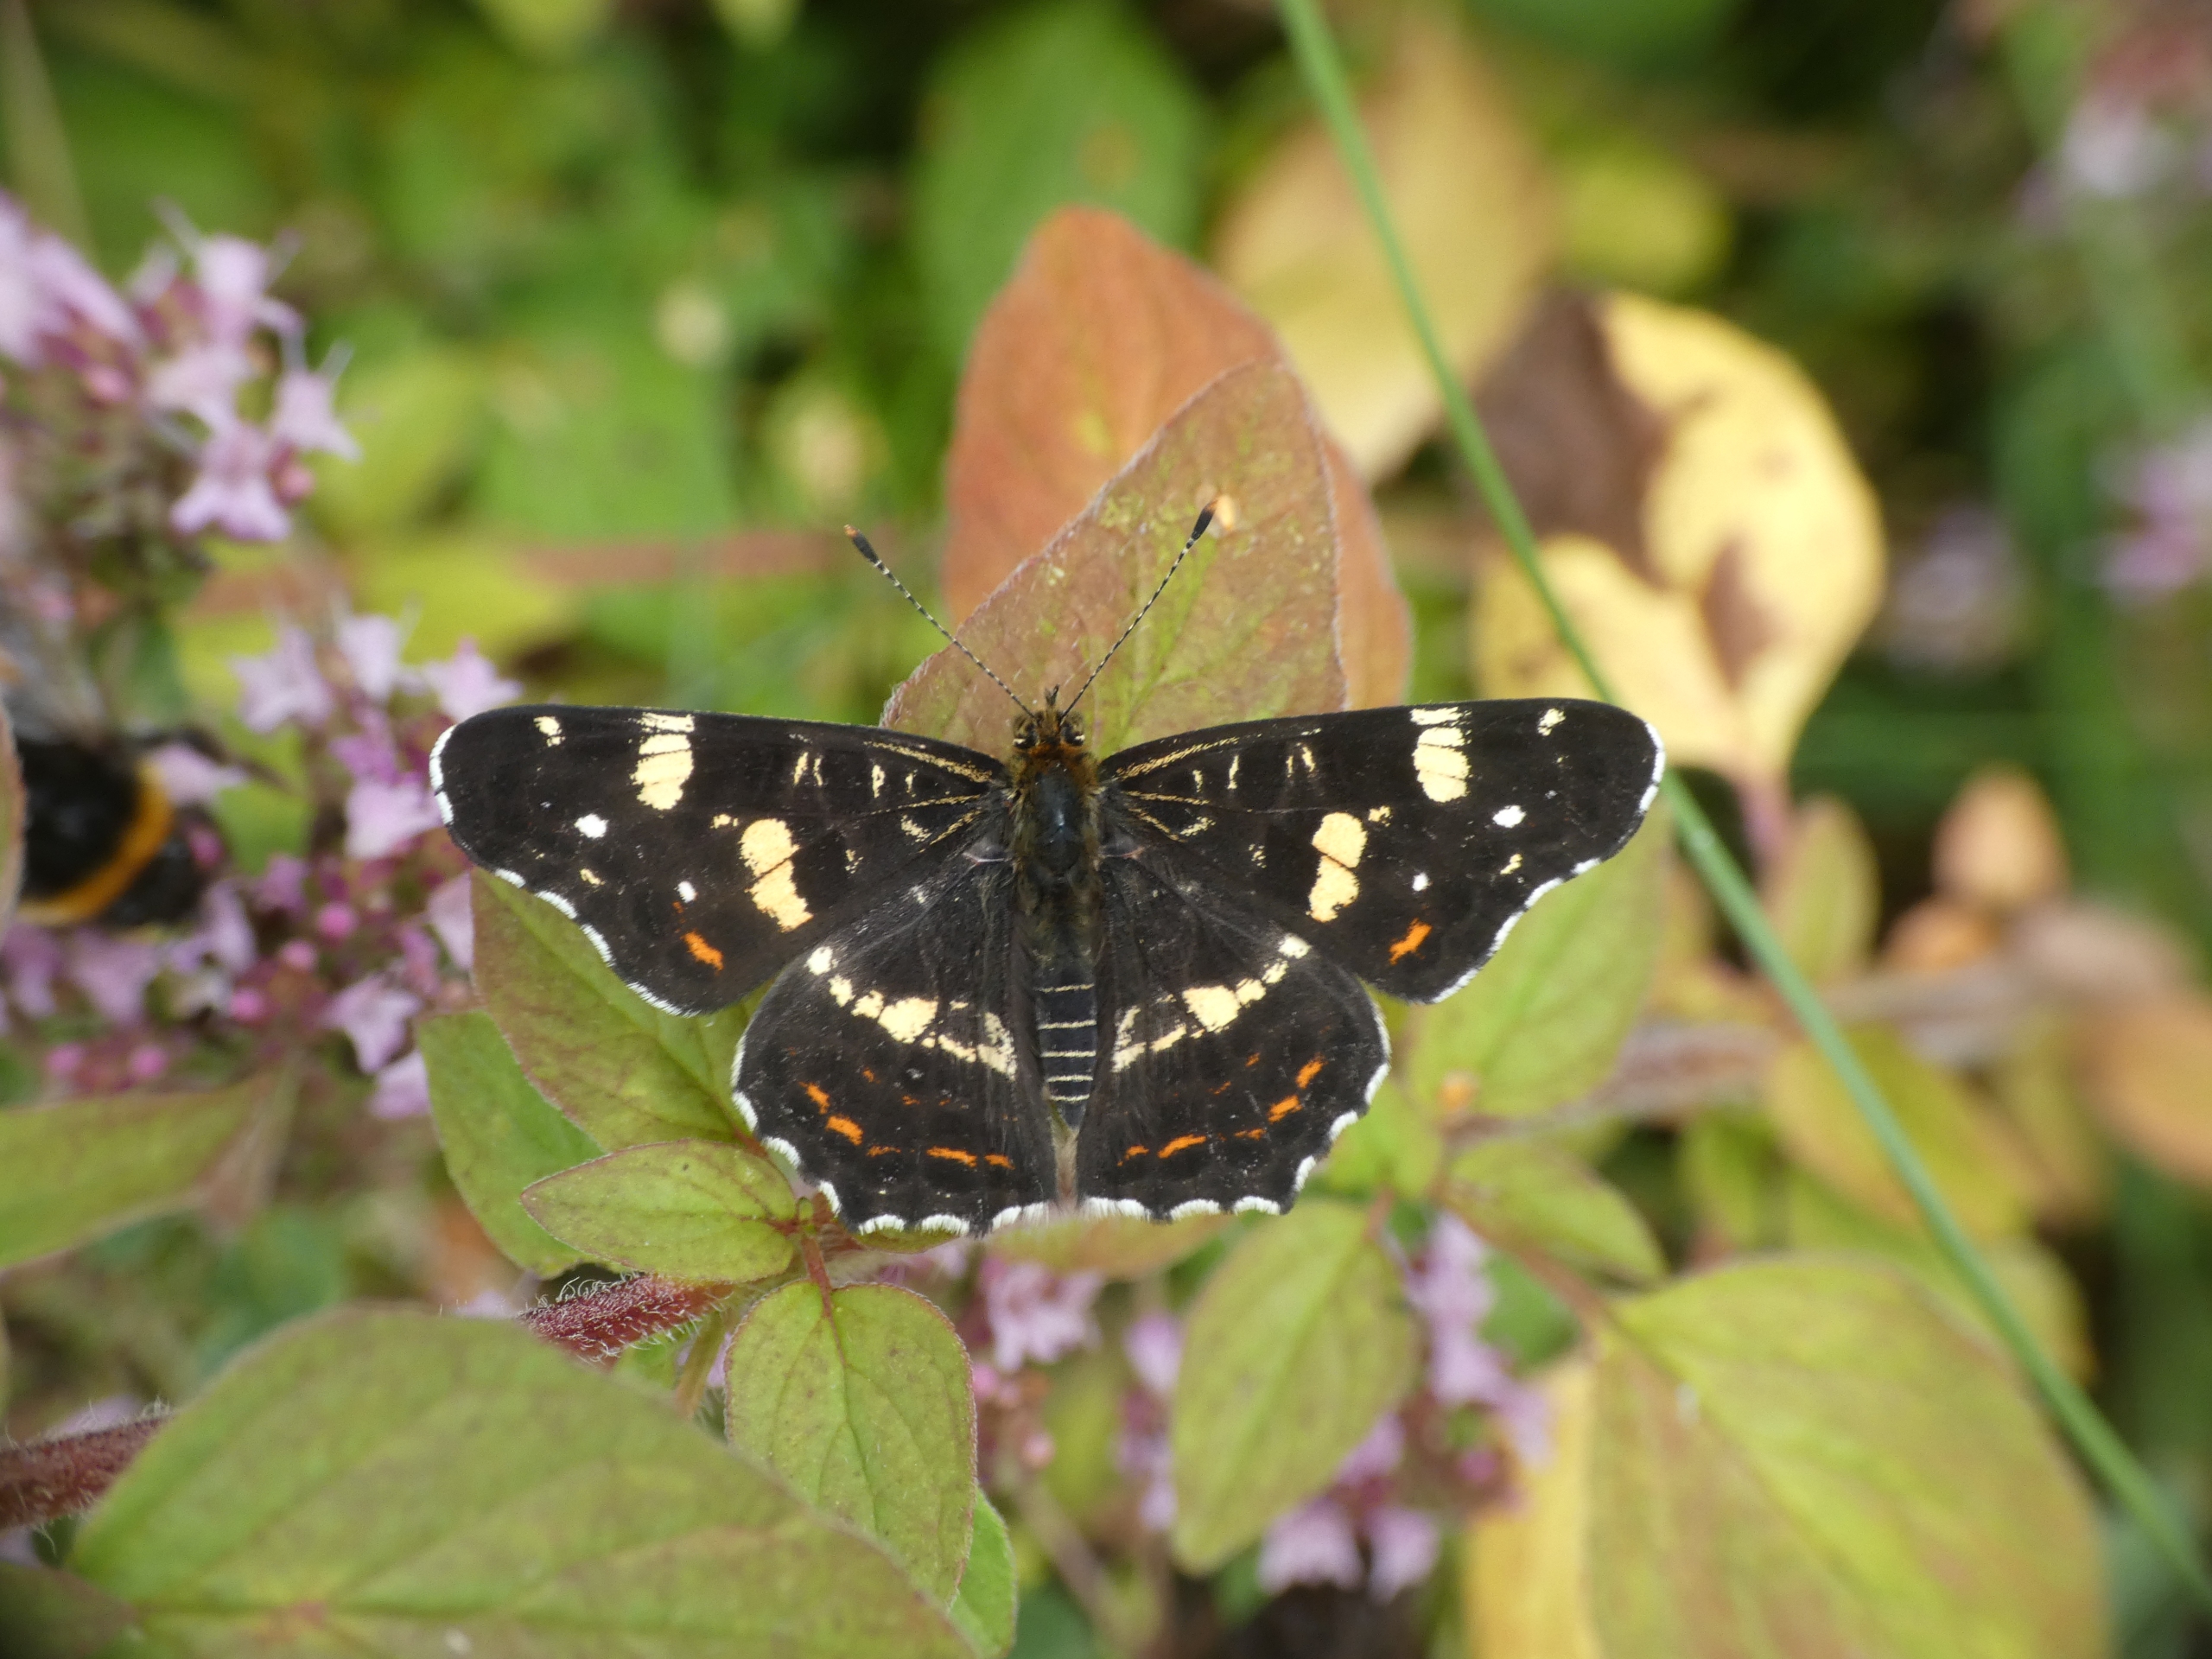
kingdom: Animalia
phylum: Arthropoda
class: Insecta
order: Lepidoptera
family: Nymphalidae
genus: Araschnia
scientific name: Araschnia levana
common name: Nældesommerfugl
